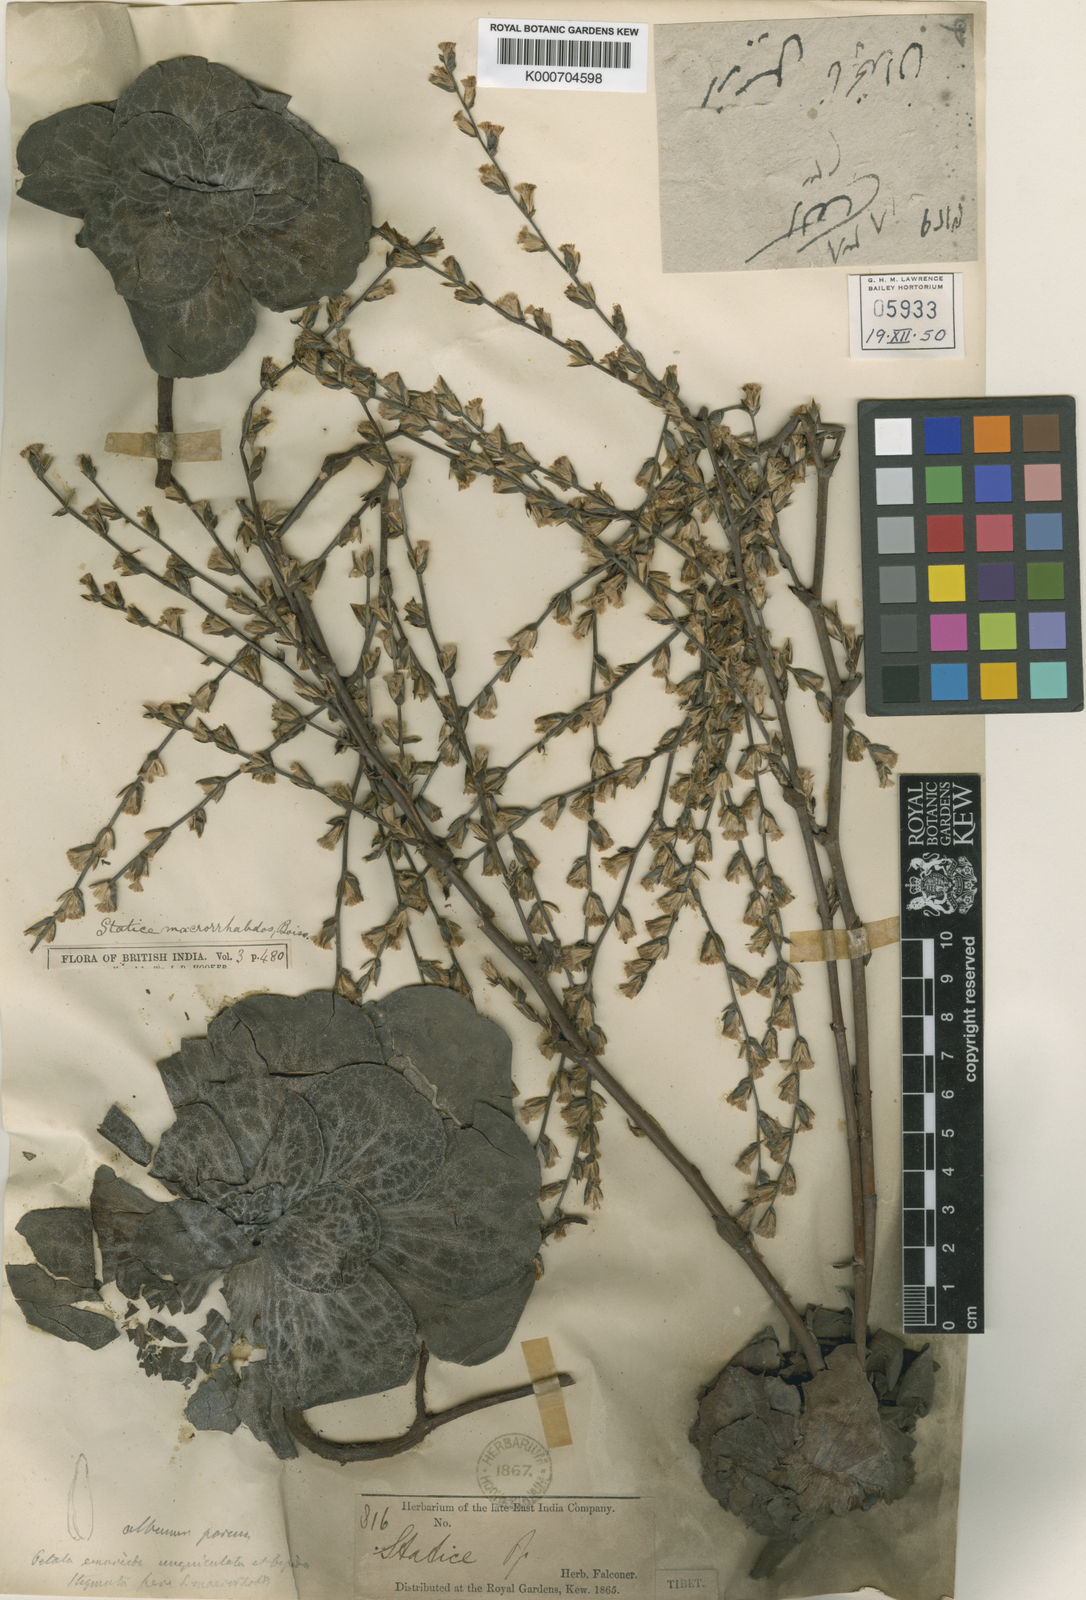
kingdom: Plantae
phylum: Tracheophyta
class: Magnoliopsida
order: Caryophyllales
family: Plumbaginaceae
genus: Dictyolimon
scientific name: Dictyolimon macrorrhabdos
